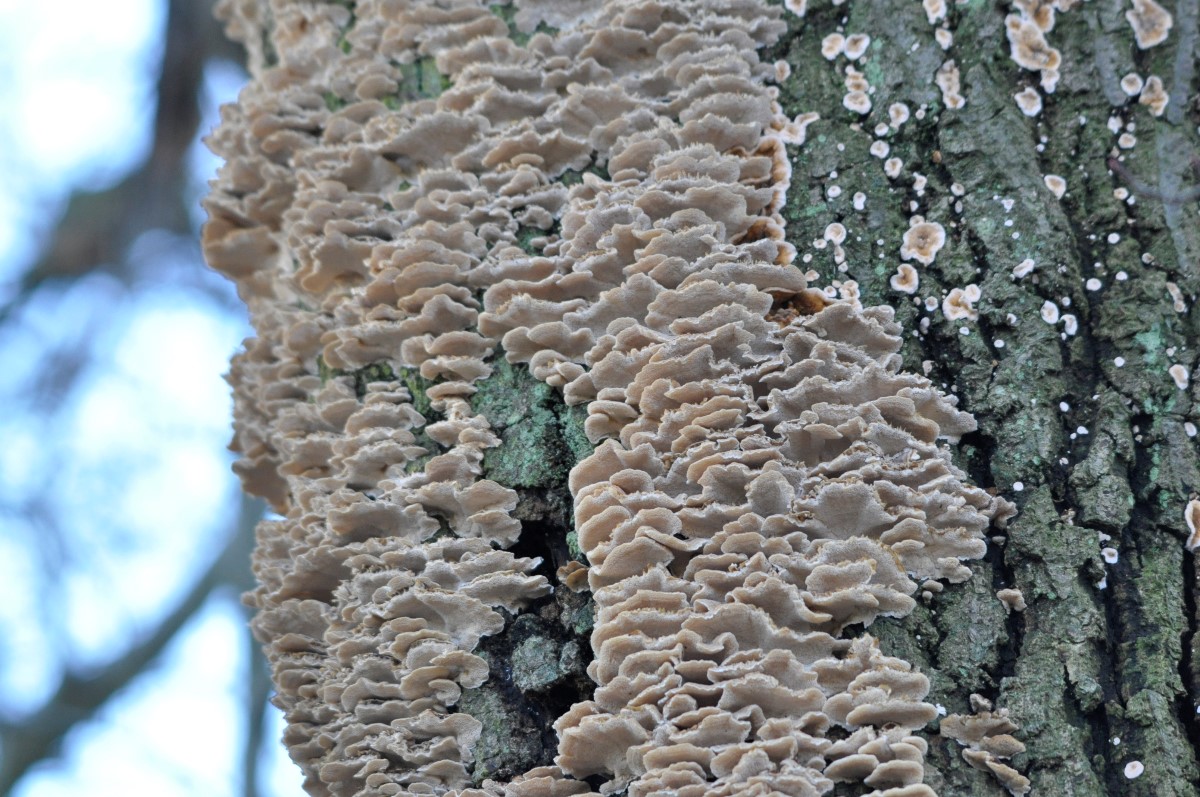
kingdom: Fungi
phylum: Basidiomycota
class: Agaricomycetes
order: Polyporales
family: Polyporaceae
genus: Trametes
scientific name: Trametes versicolor
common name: broget læderporesvamp
